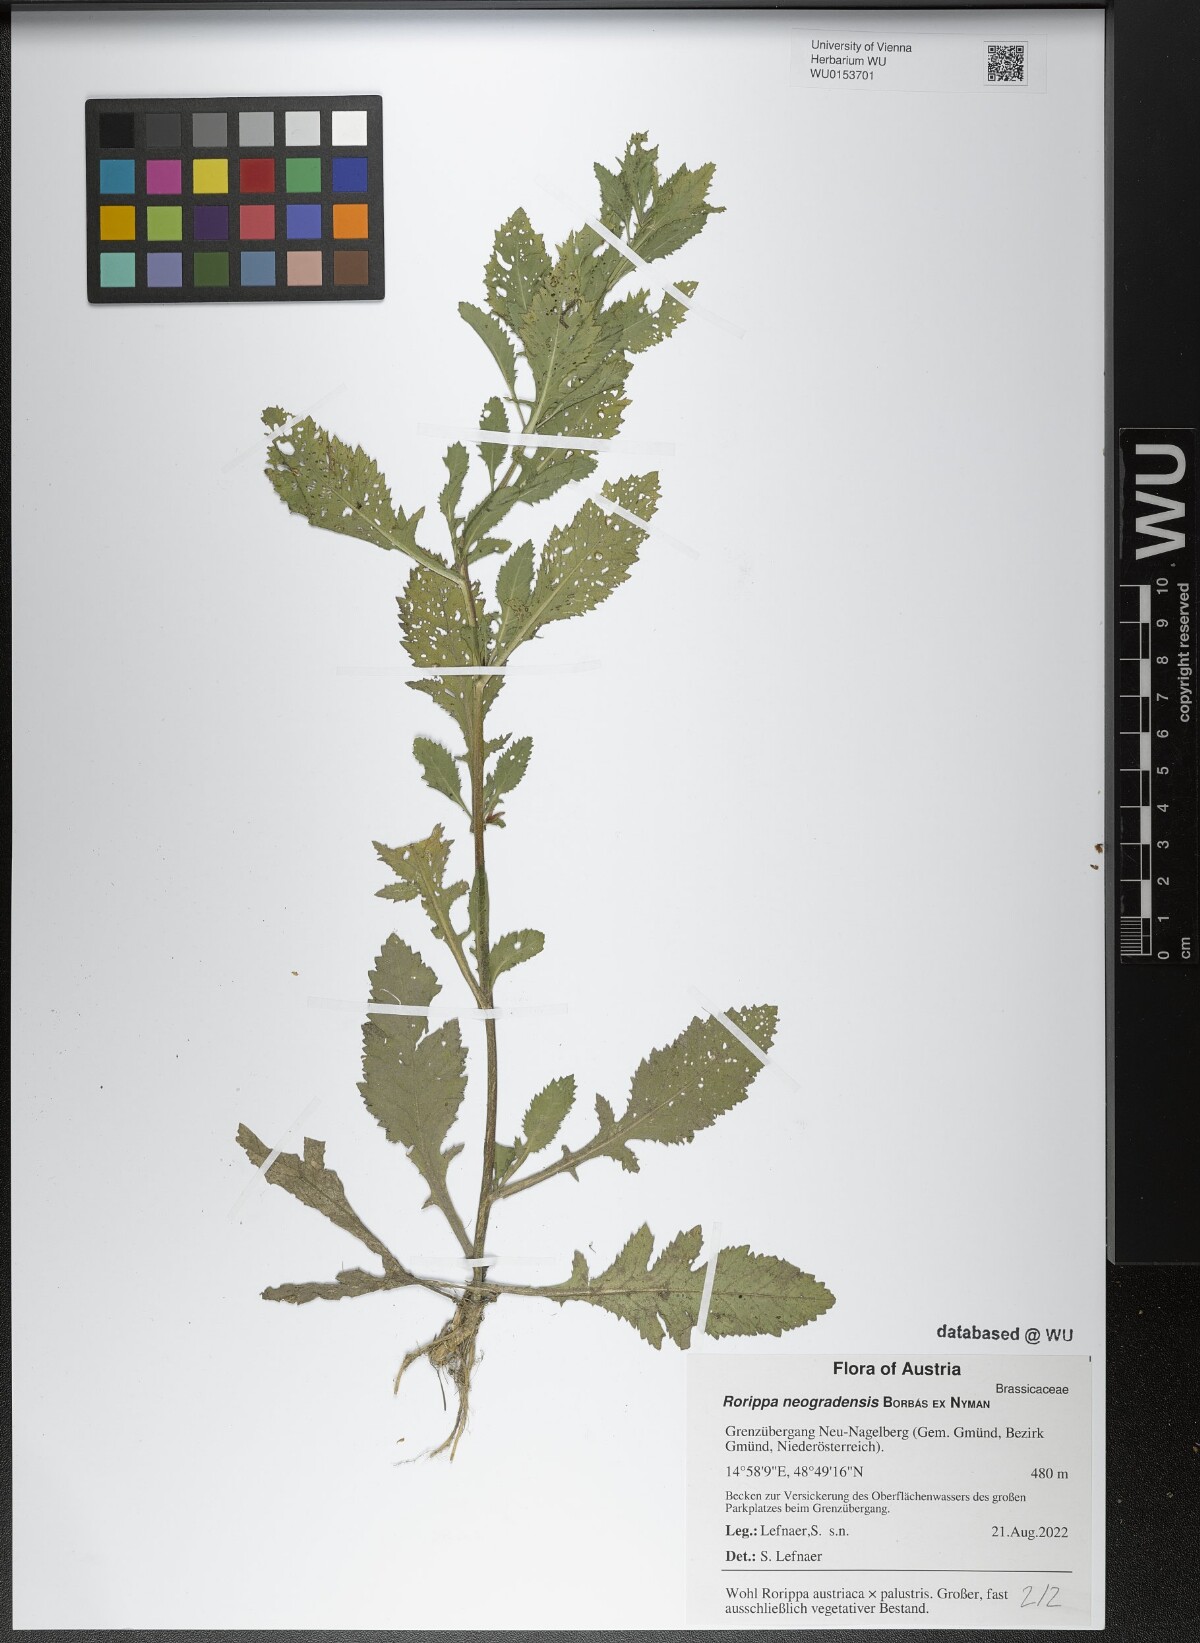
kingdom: Plantae
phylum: Tracheophyta
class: Magnoliopsida
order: Brassicales
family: Brassicaceae
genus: Rorippa
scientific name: Rorippa neogradensis
